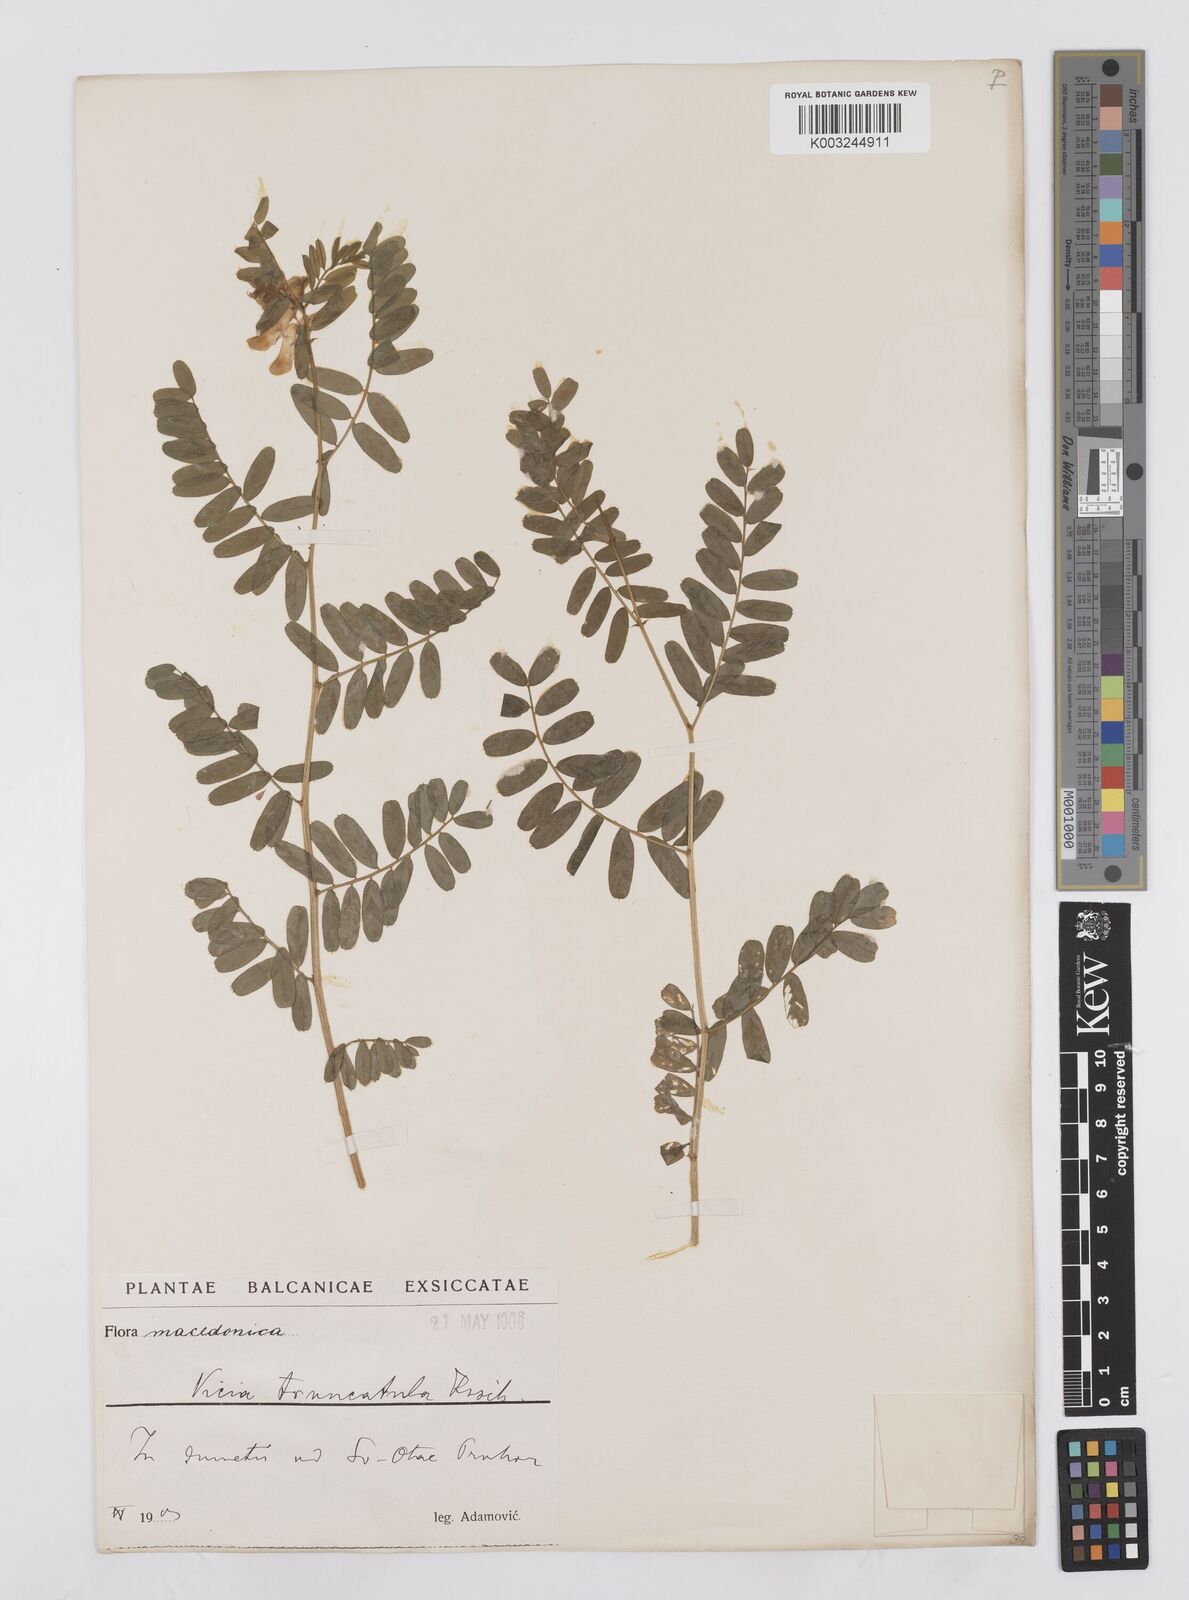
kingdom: Plantae
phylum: Tracheophyta
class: Magnoliopsida
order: Fabales
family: Fabaceae
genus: Vicia
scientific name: Vicia abbreviata
